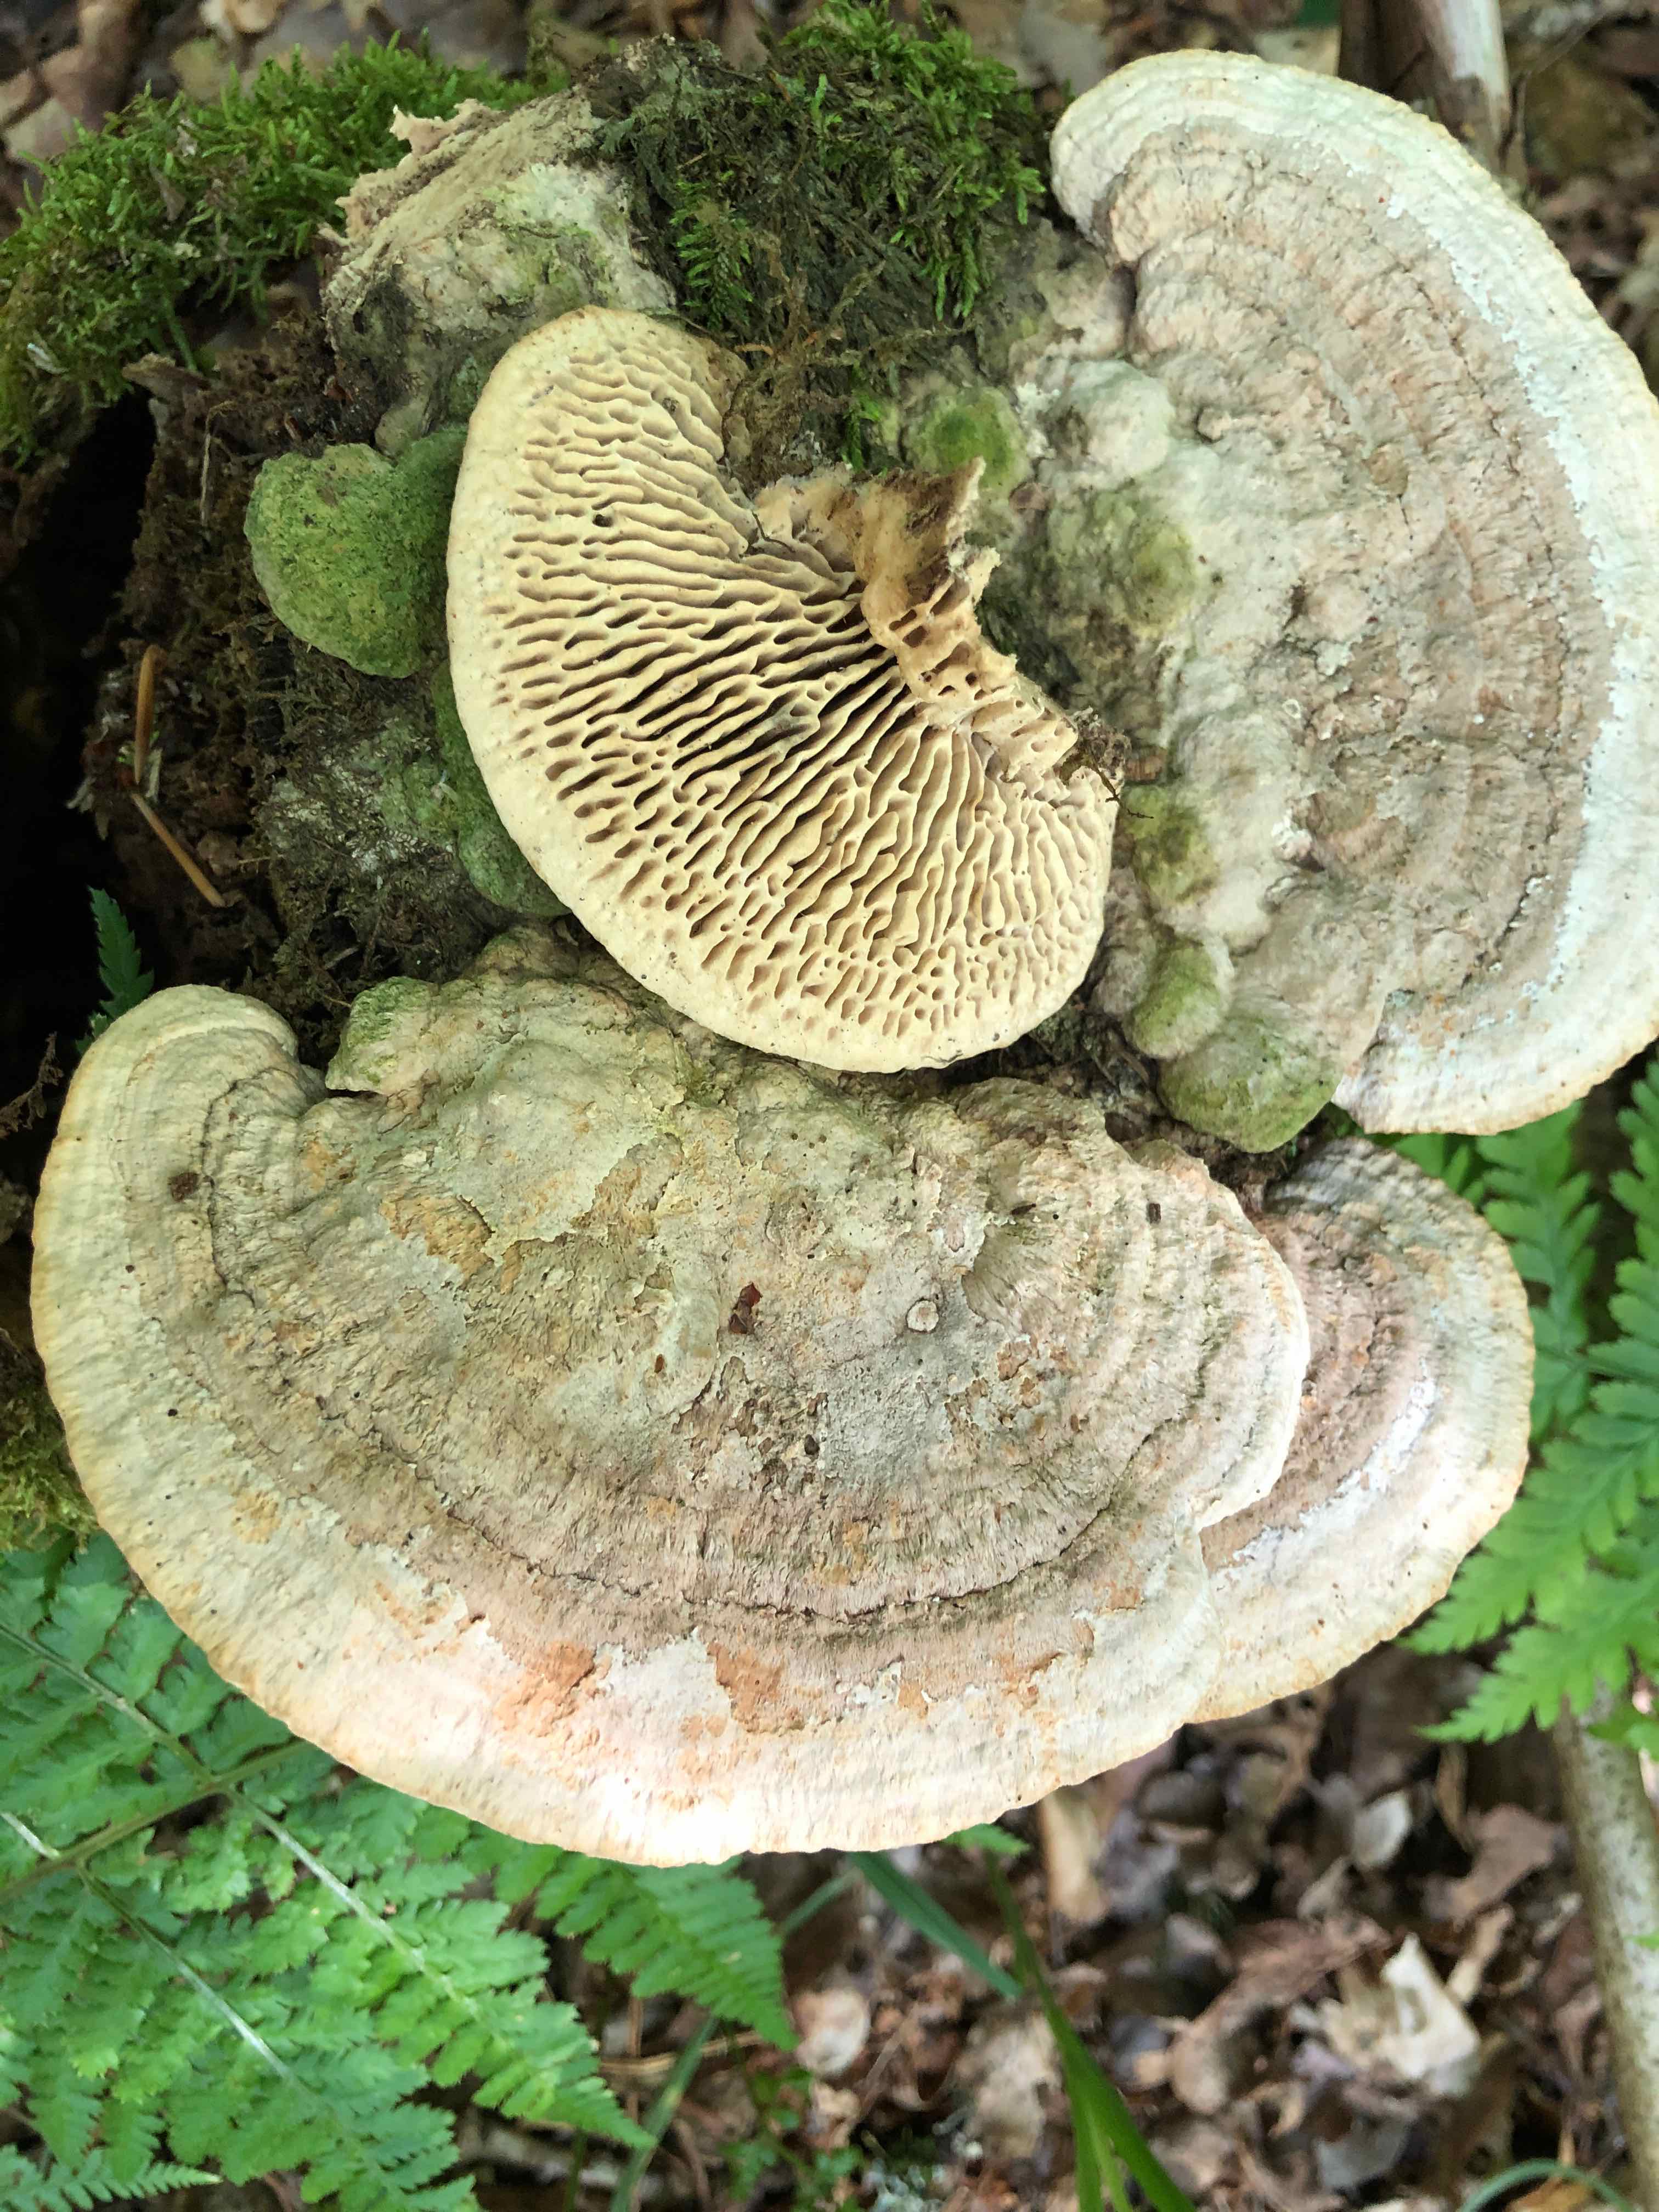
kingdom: Fungi
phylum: Basidiomycota
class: Agaricomycetes
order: Polyporales
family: Fomitopsidaceae
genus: Daedalea
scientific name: Daedalea quercina
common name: ege-labyrintsvamp
